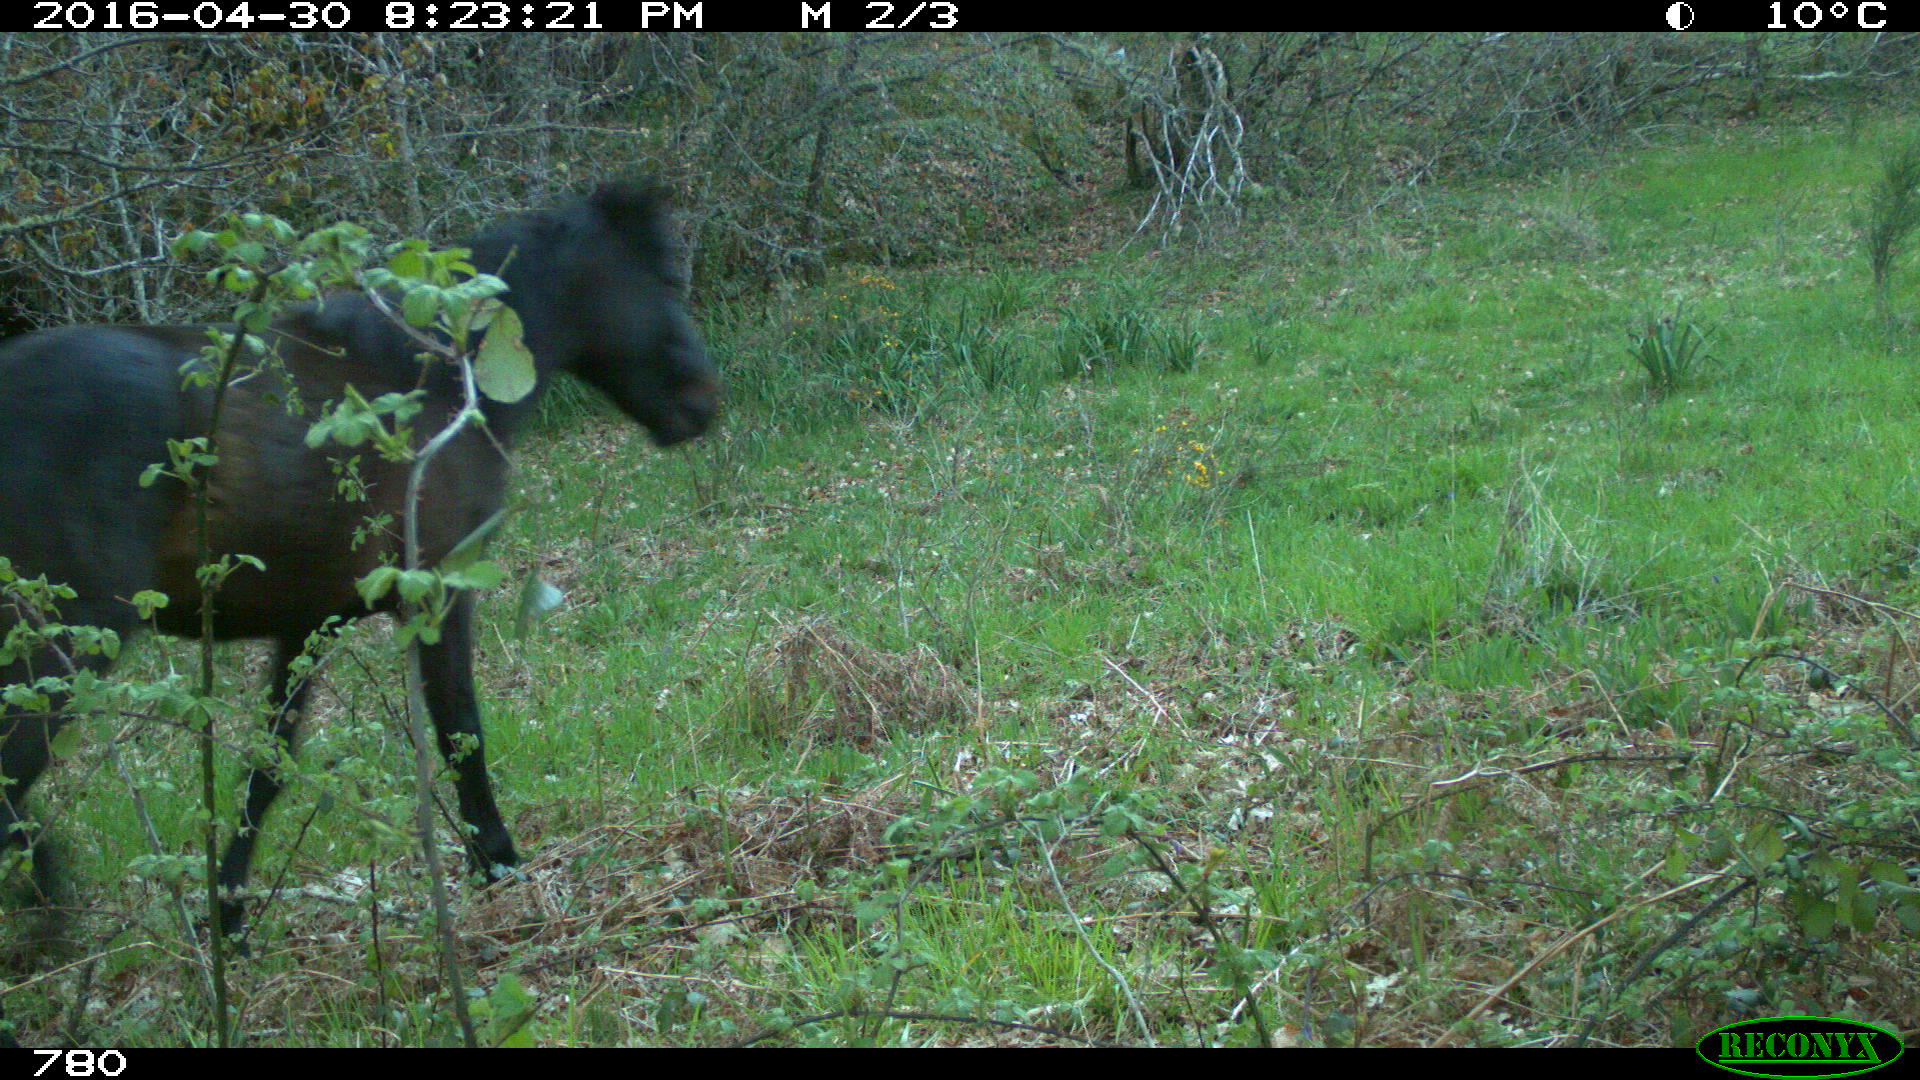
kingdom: Animalia
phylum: Chordata
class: Mammalia
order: Perissodactyla
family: Equidae
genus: Equus
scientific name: Equus caballus
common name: Horse
